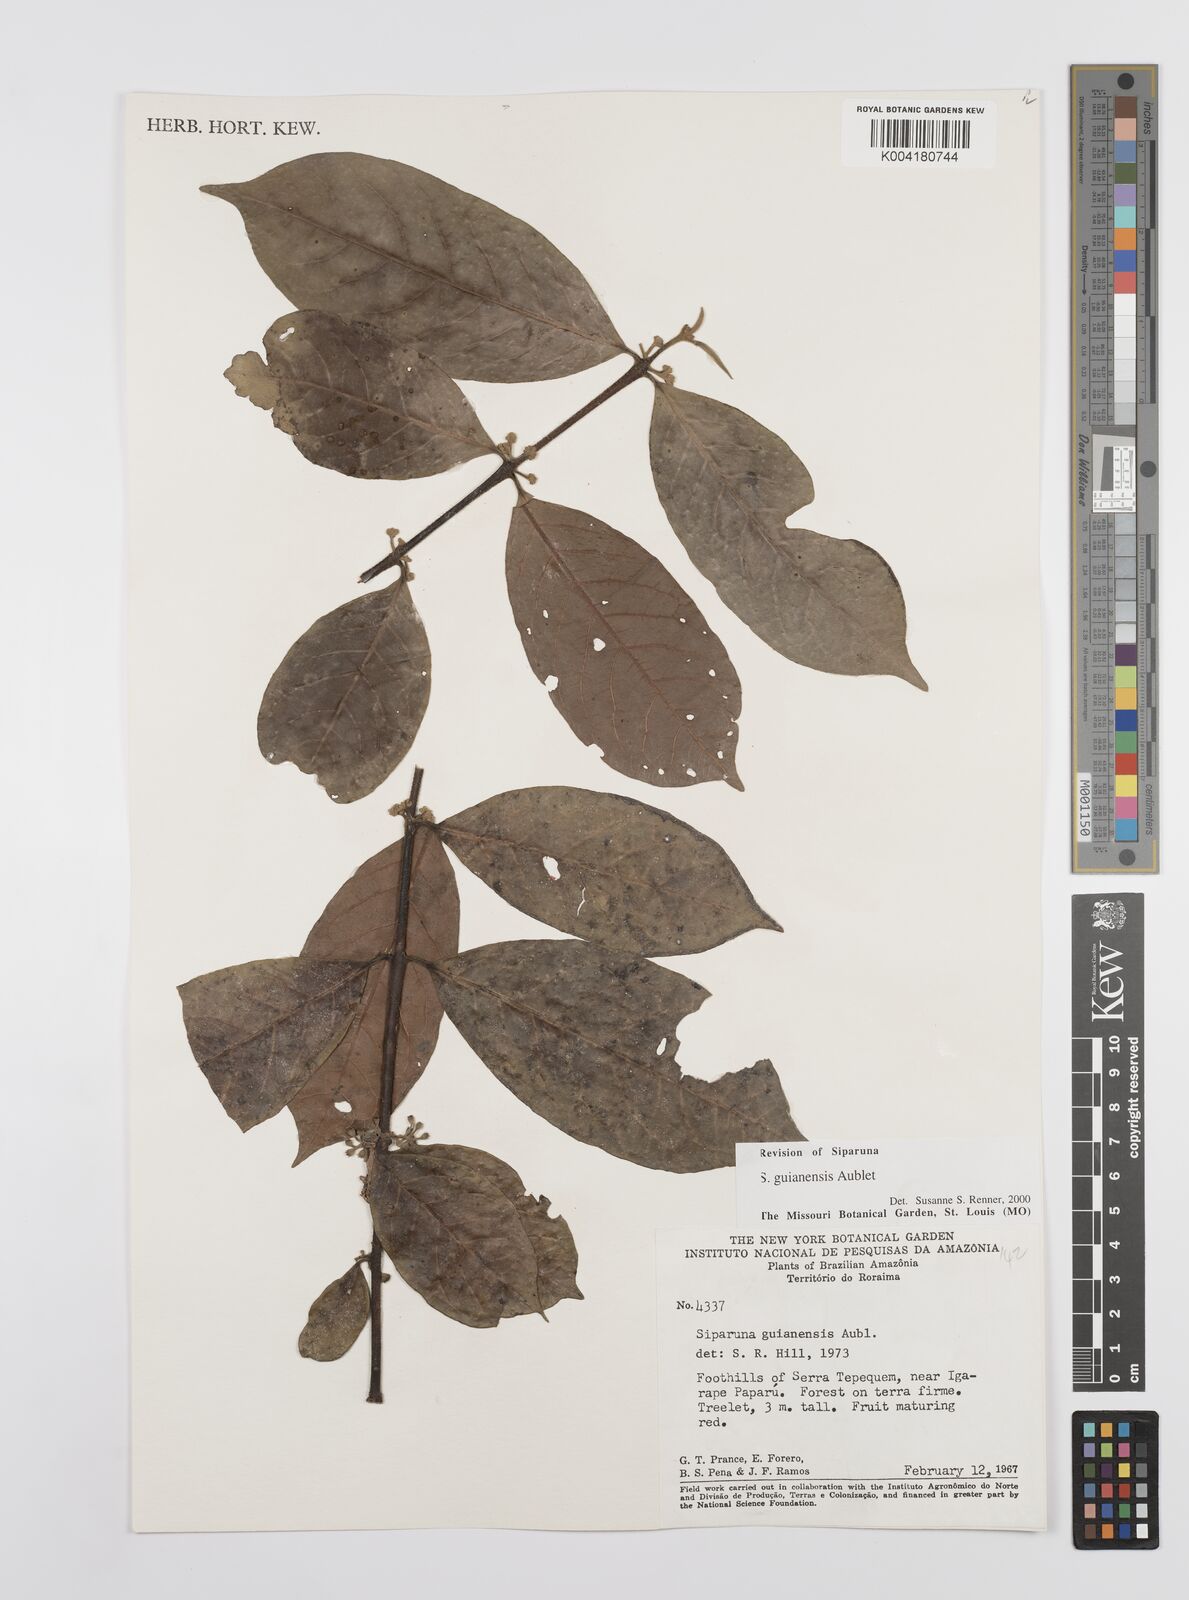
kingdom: Plantae
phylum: Tracheophyta
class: Magnoliopsida
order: Laurales
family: Siparunaceae
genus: Siparuna
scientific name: Siparuna guianensis
